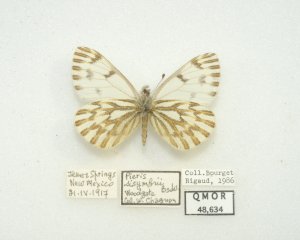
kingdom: Animalia
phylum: Arthropoda
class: Insecta
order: Lepidoptera
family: Pieridae
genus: Pontia
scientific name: Pontia sisymbrii
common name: Spring White
